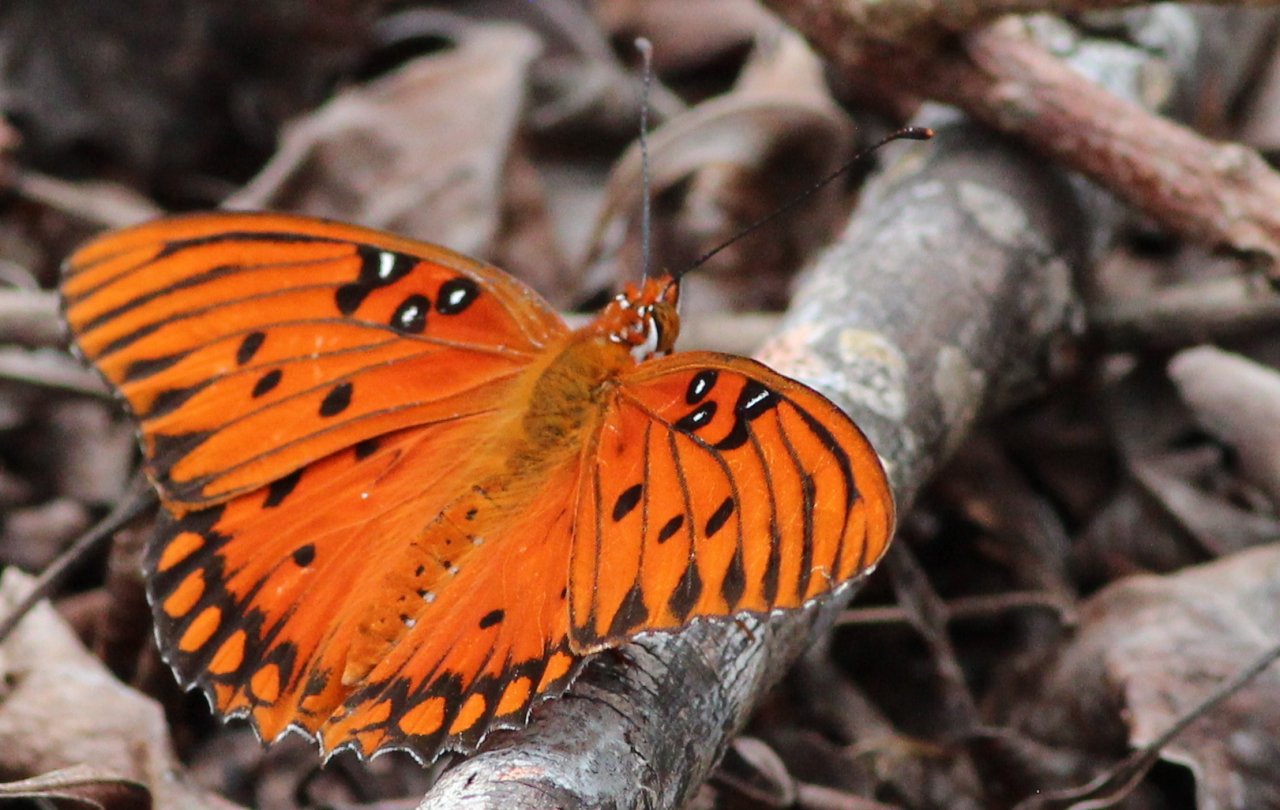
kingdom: Animalia
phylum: Arthropoda
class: Insecta
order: Lepidoptera
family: Nymphalidae
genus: Dione
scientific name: Dione vanillae
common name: Gulf Fritillary
